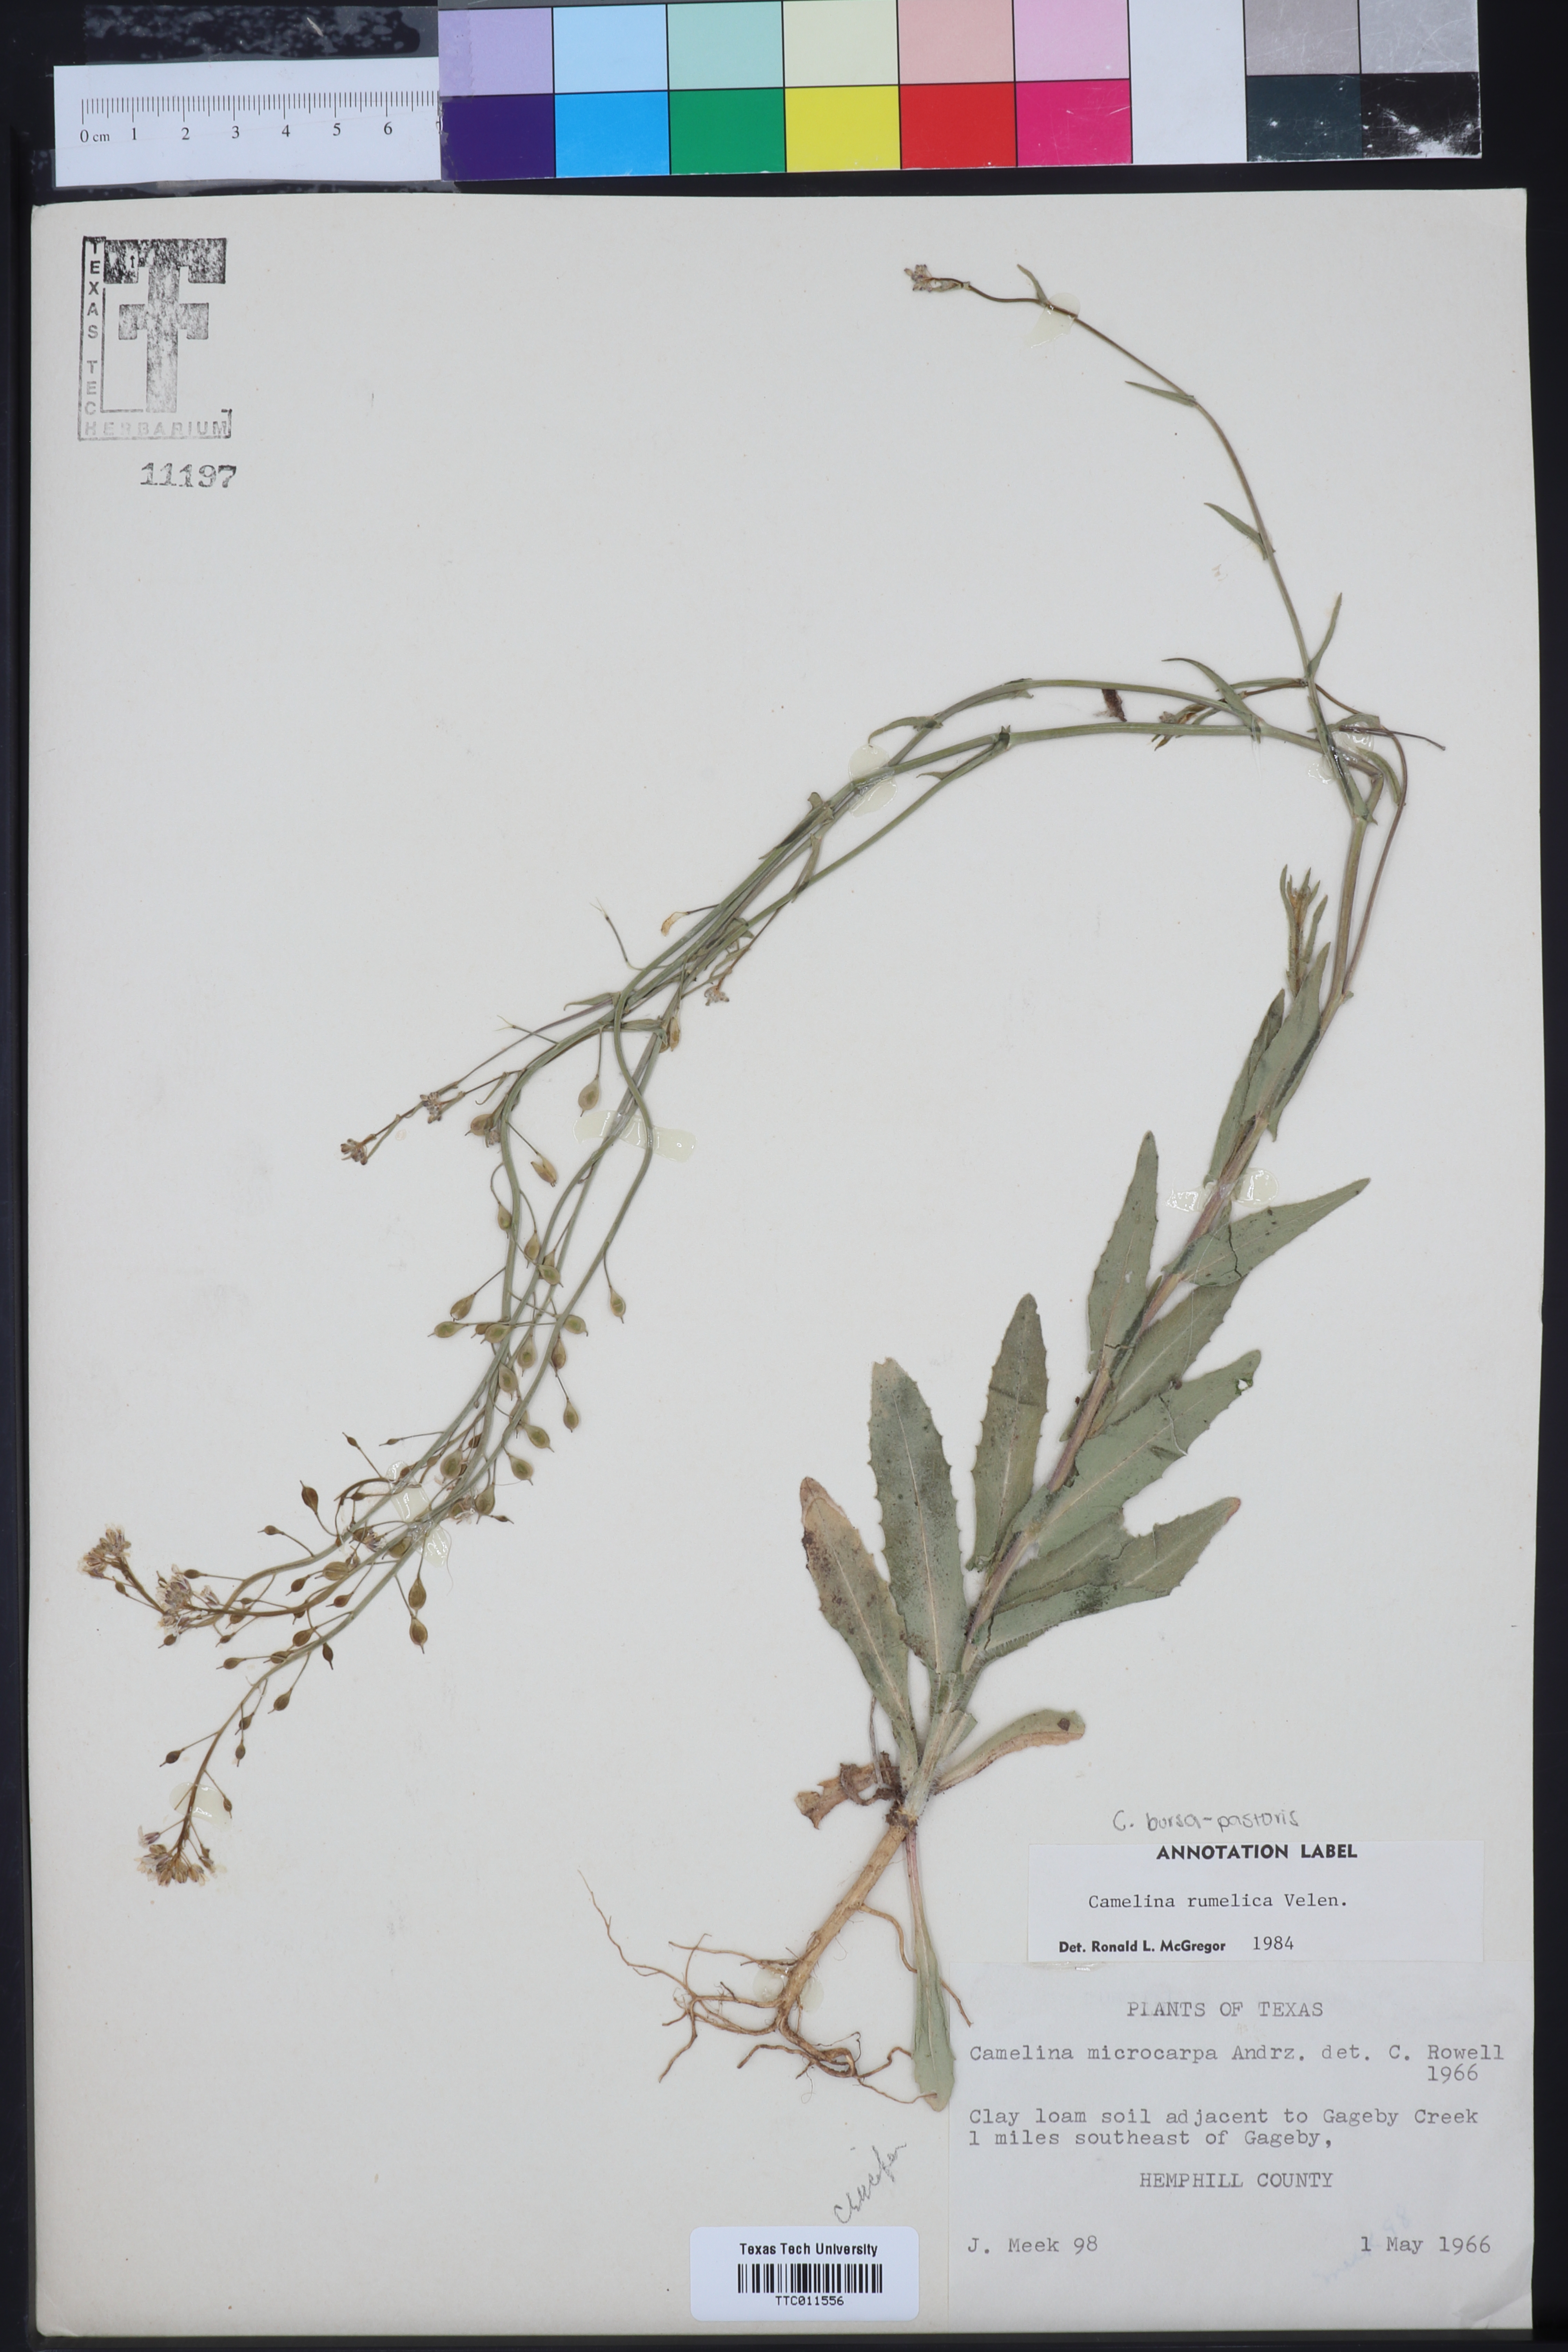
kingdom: Plantae
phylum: Tracheophyta
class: Magnoliopsida
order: Brassicales
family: Brassicaceae
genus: Camelina
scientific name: Camelina rumelica
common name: Graceful false flax
